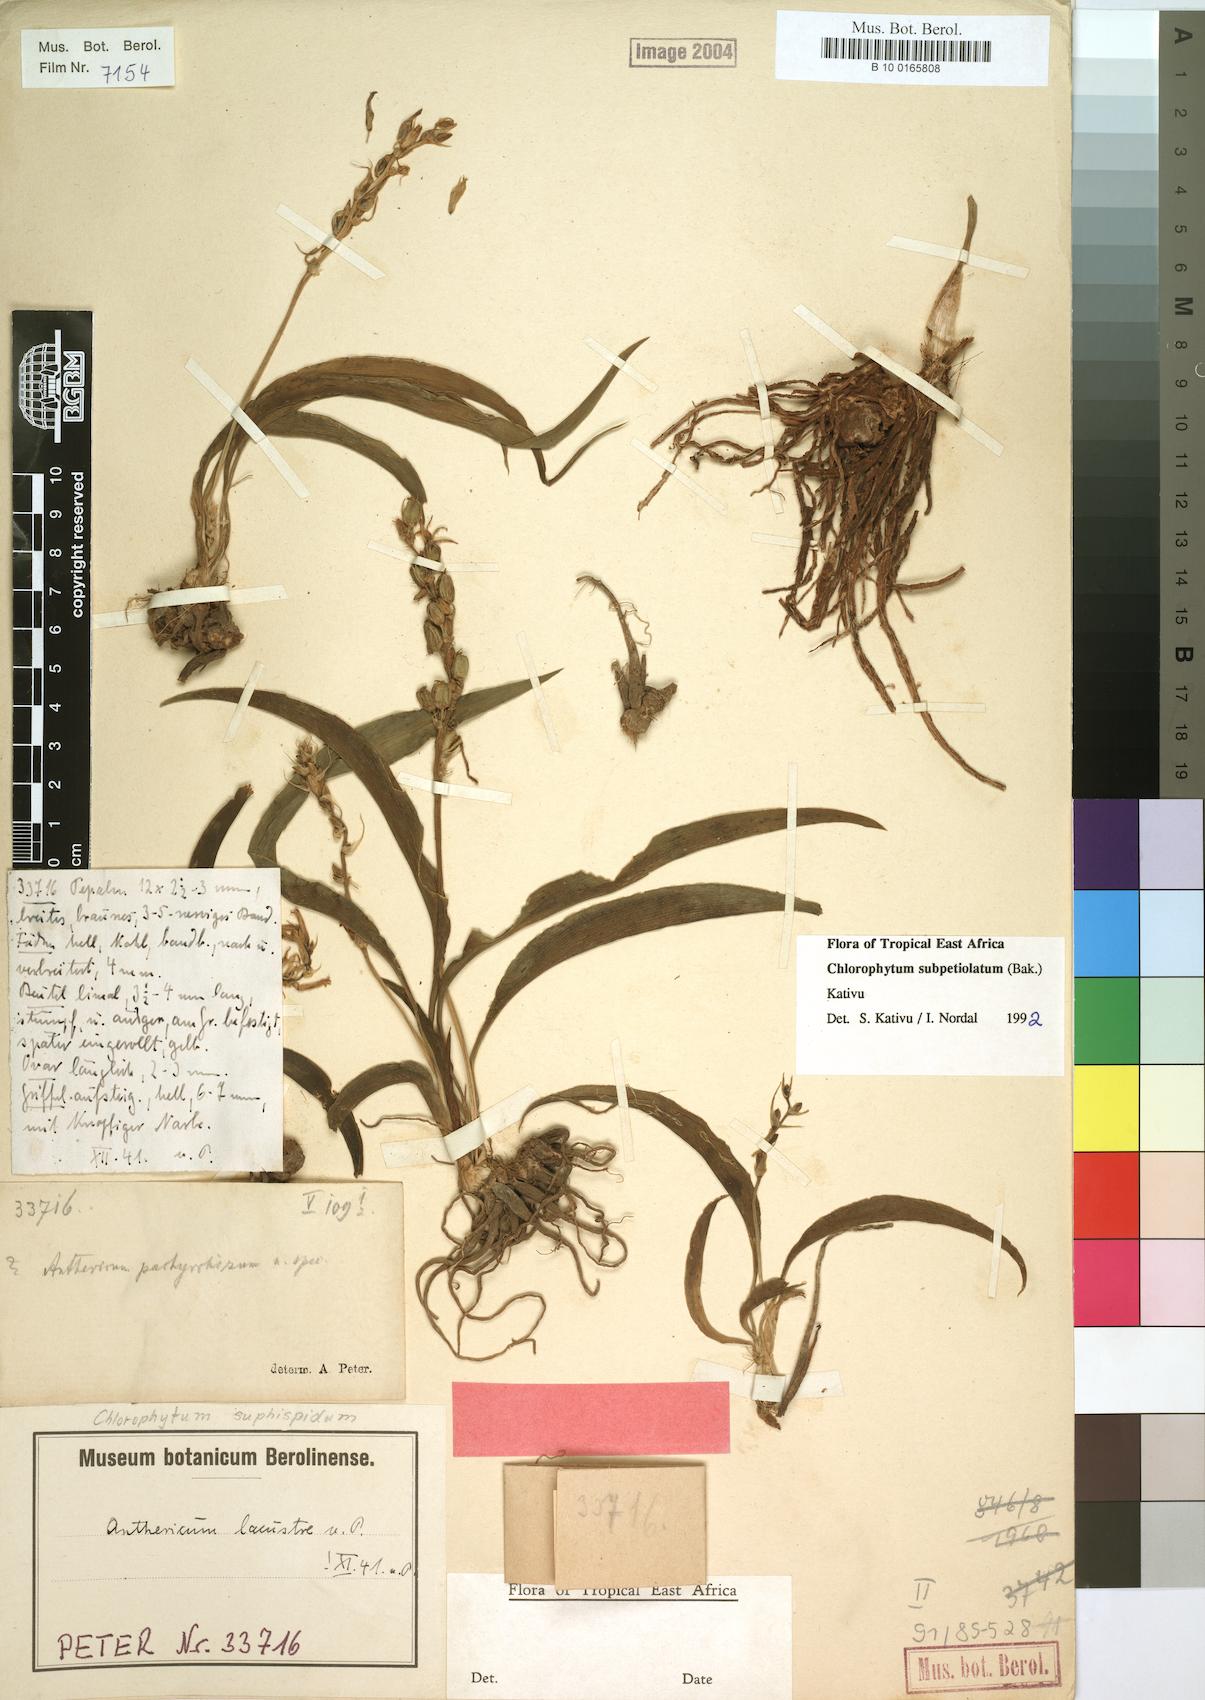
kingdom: Plantae
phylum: Tracheophyta
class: Liliopsida
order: Asparagales
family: Asparagaceae
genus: Chlorophytum
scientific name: Chlorophytum subpetiolatum
